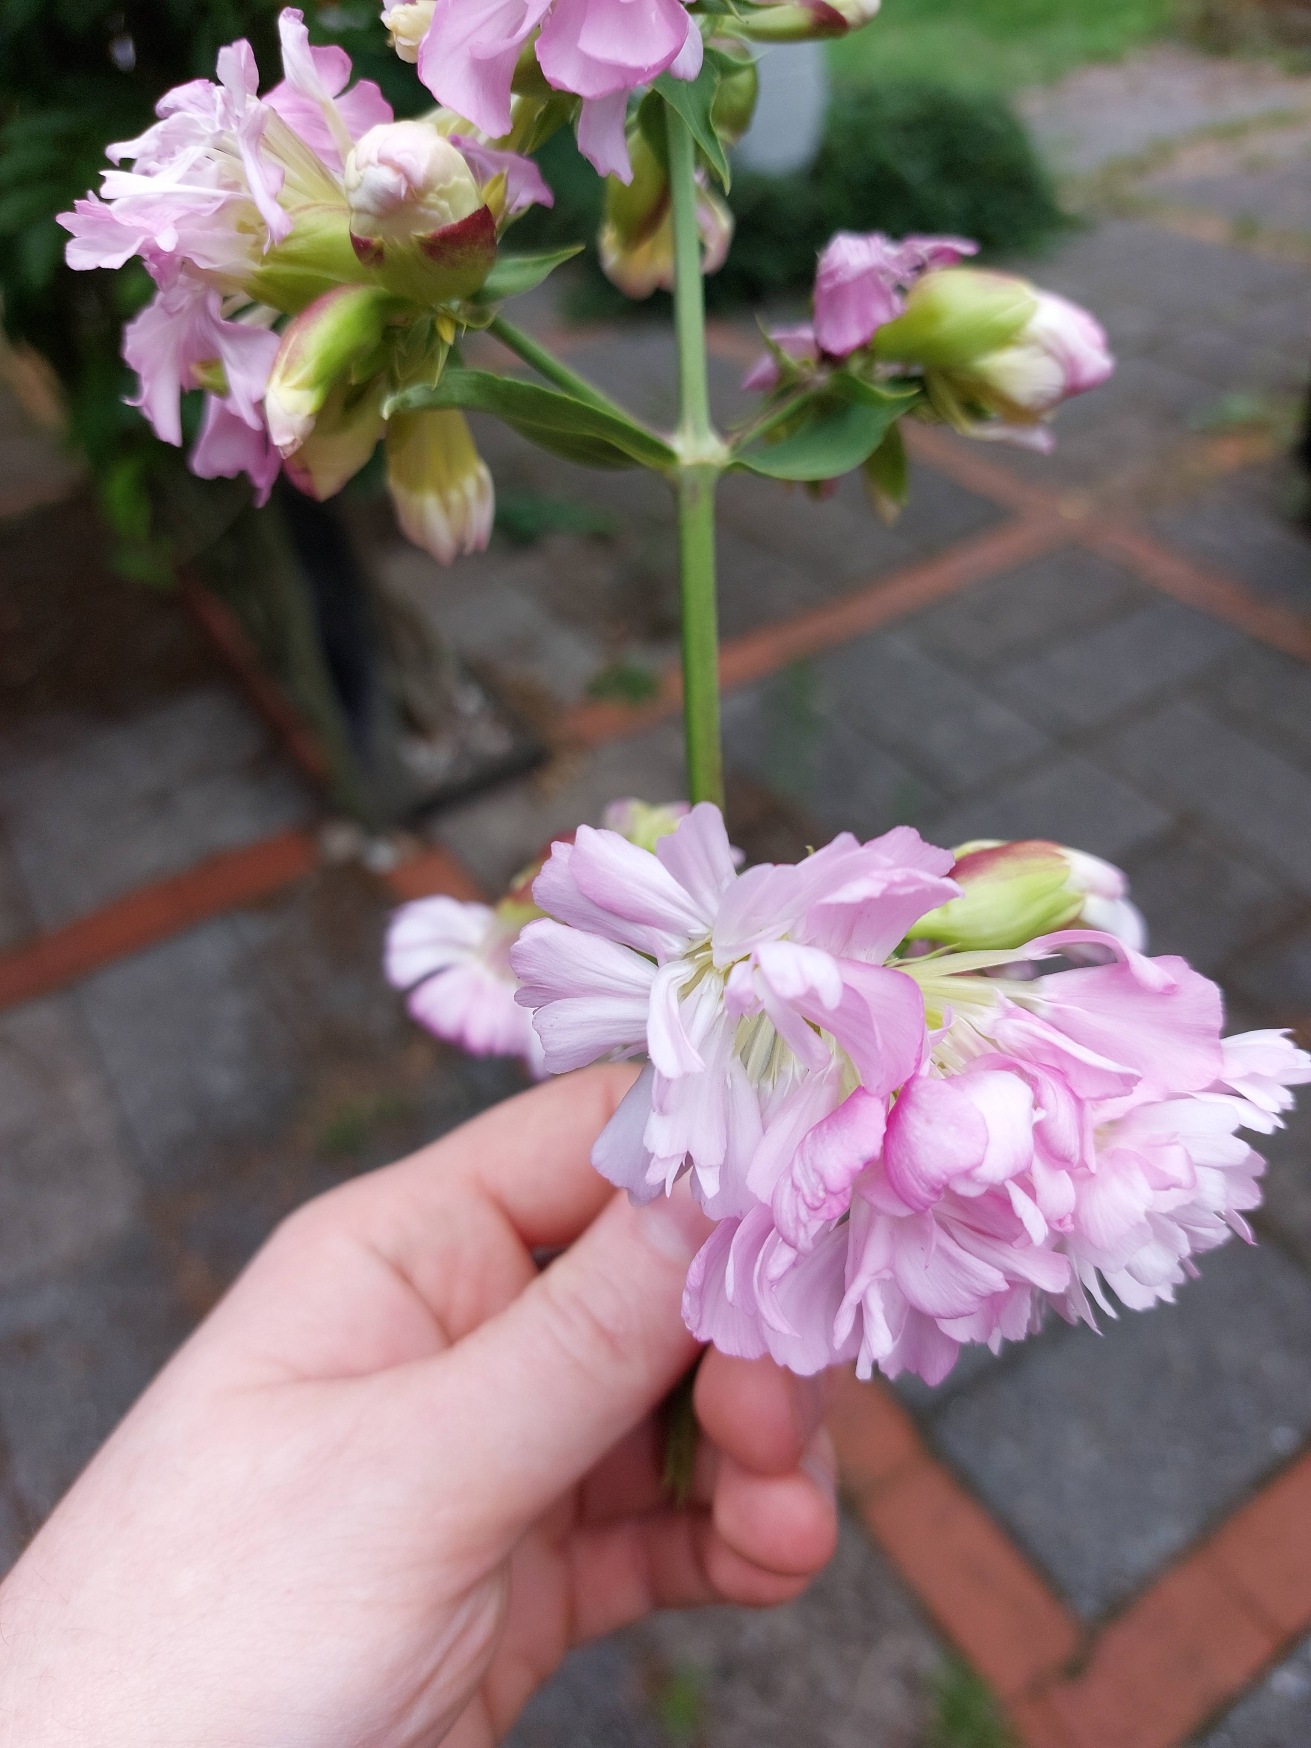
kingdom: Plantae
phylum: Tracheophyta
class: Magnoliopsida
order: Caryophyllales
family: Caryophyllaceae
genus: Saponaria
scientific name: Saponaria officinalis
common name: Sæbeurt
